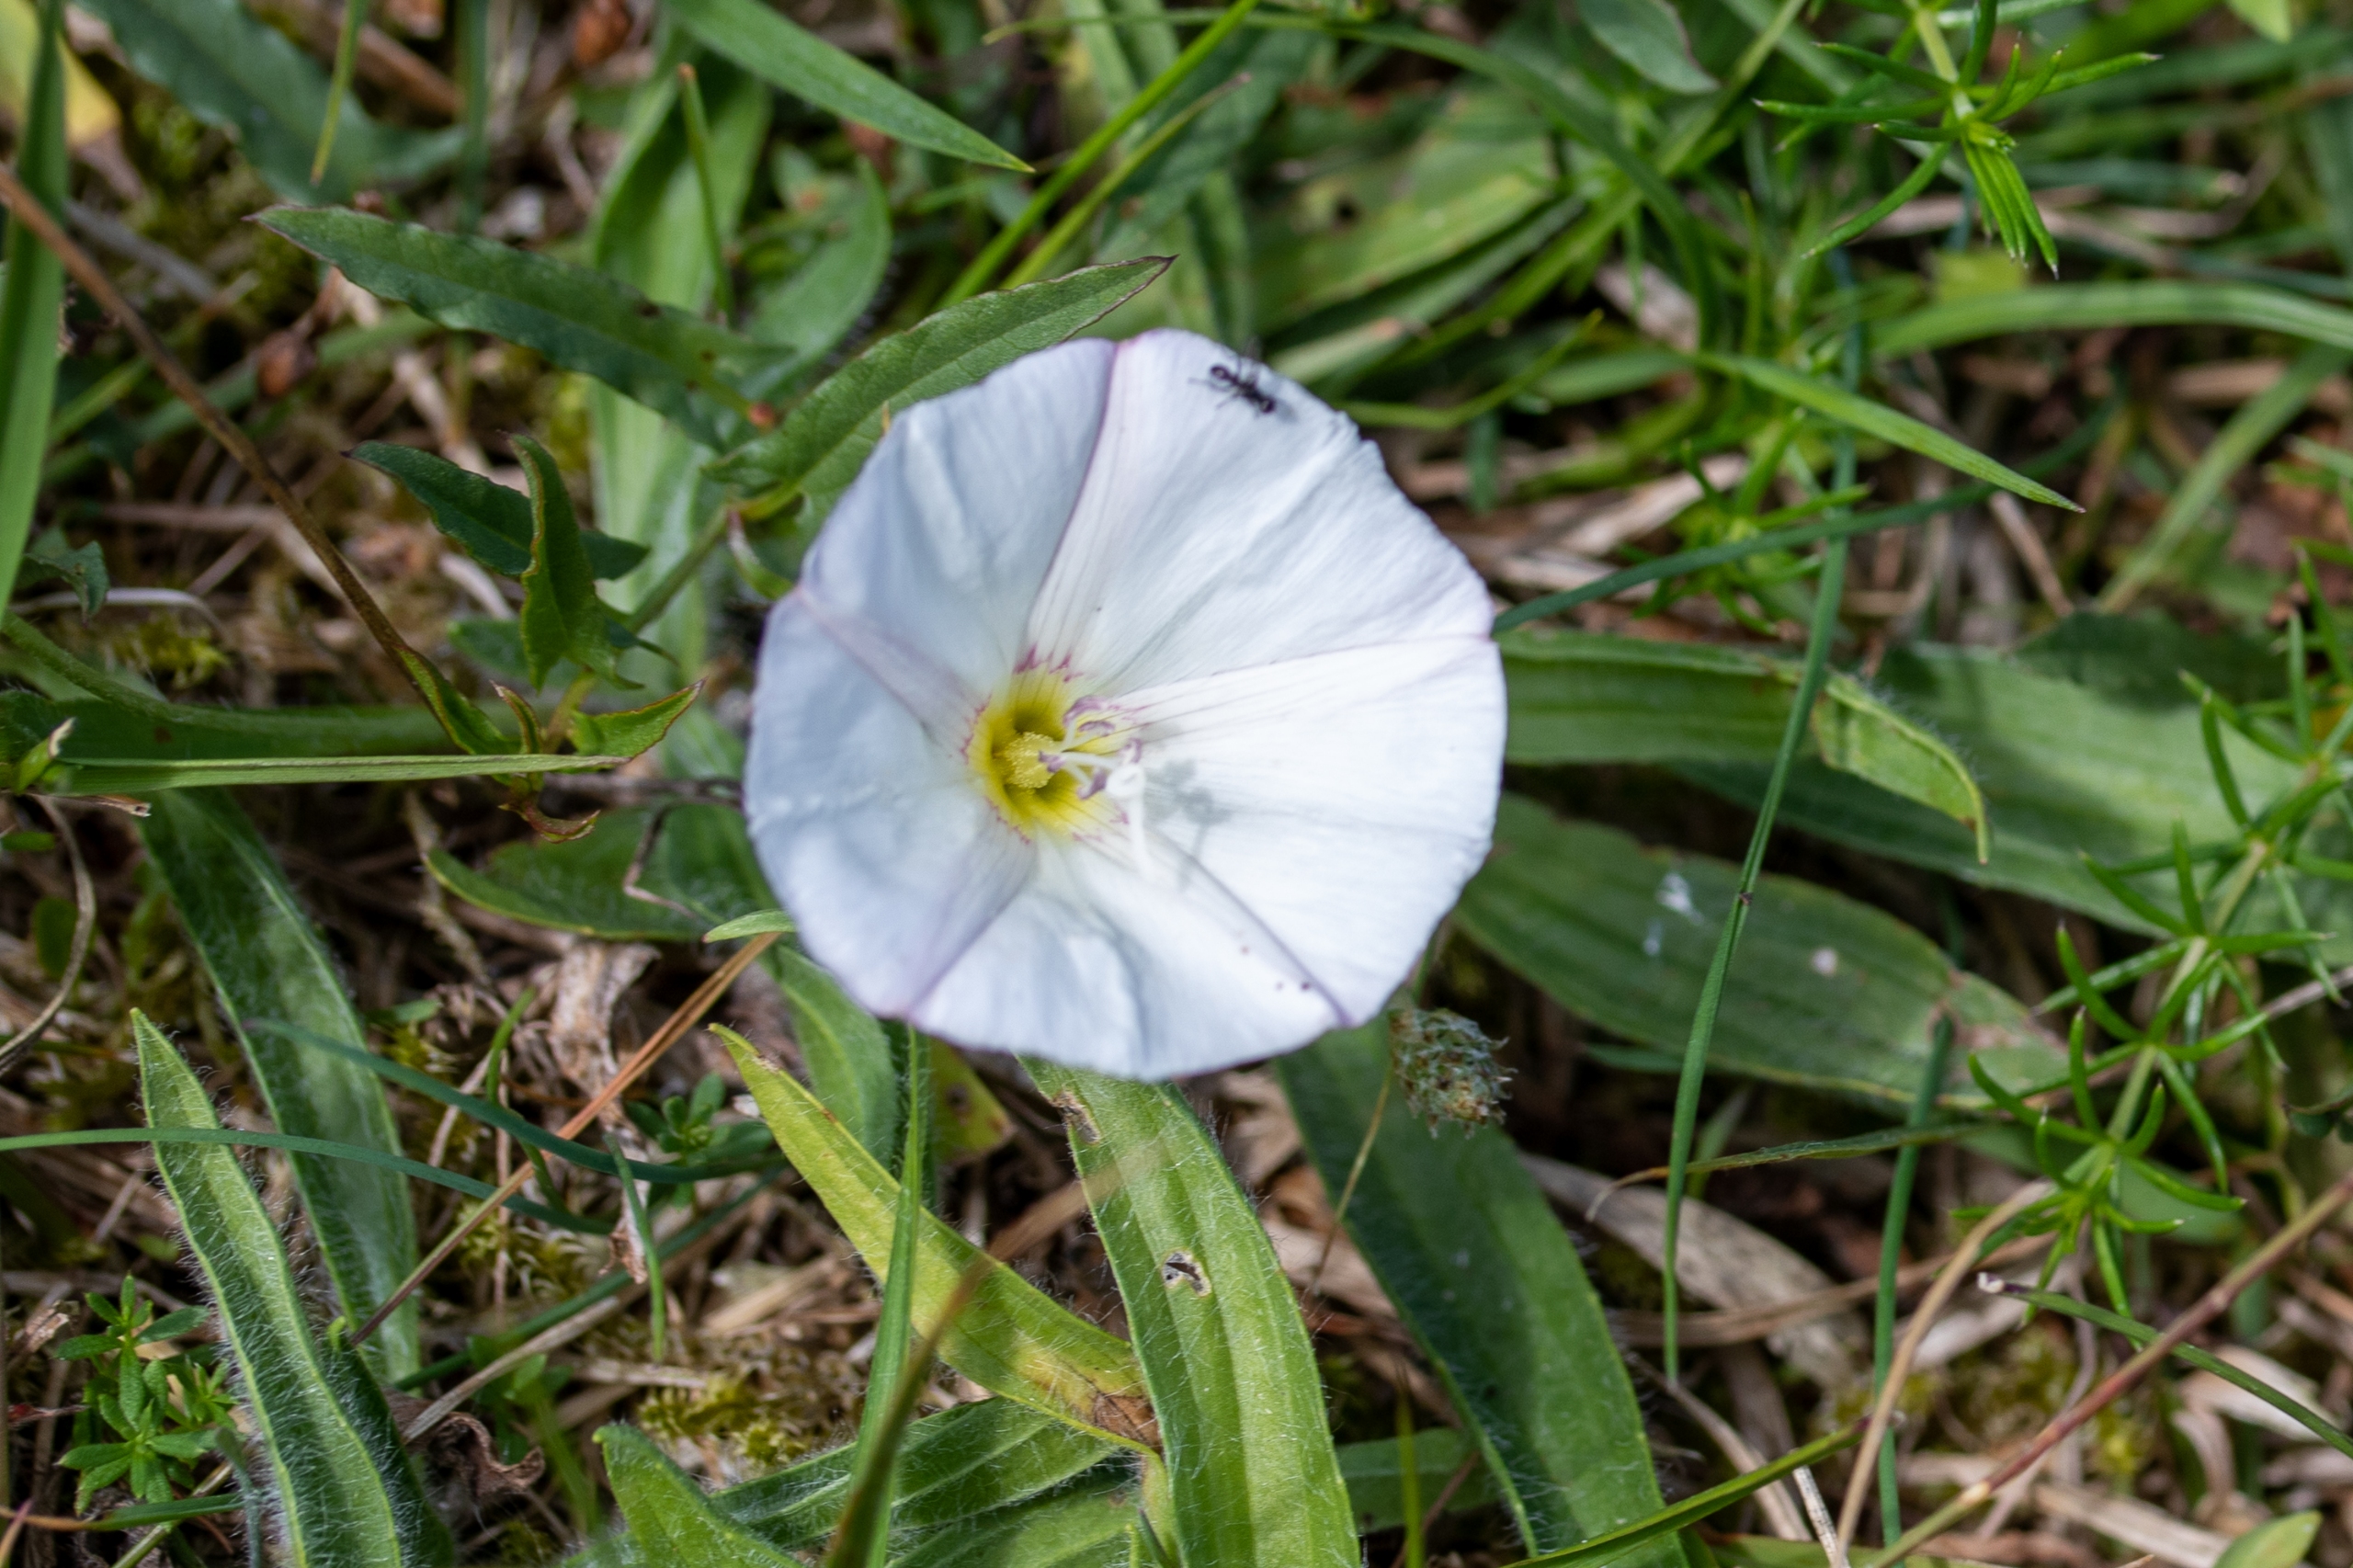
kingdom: Plantae
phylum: Tracheophyta
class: Magnoliopsida
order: Solanales
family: Convolvulaceae
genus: Convolvulus
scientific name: Convolvulus arvensis
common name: Ager-snerle
